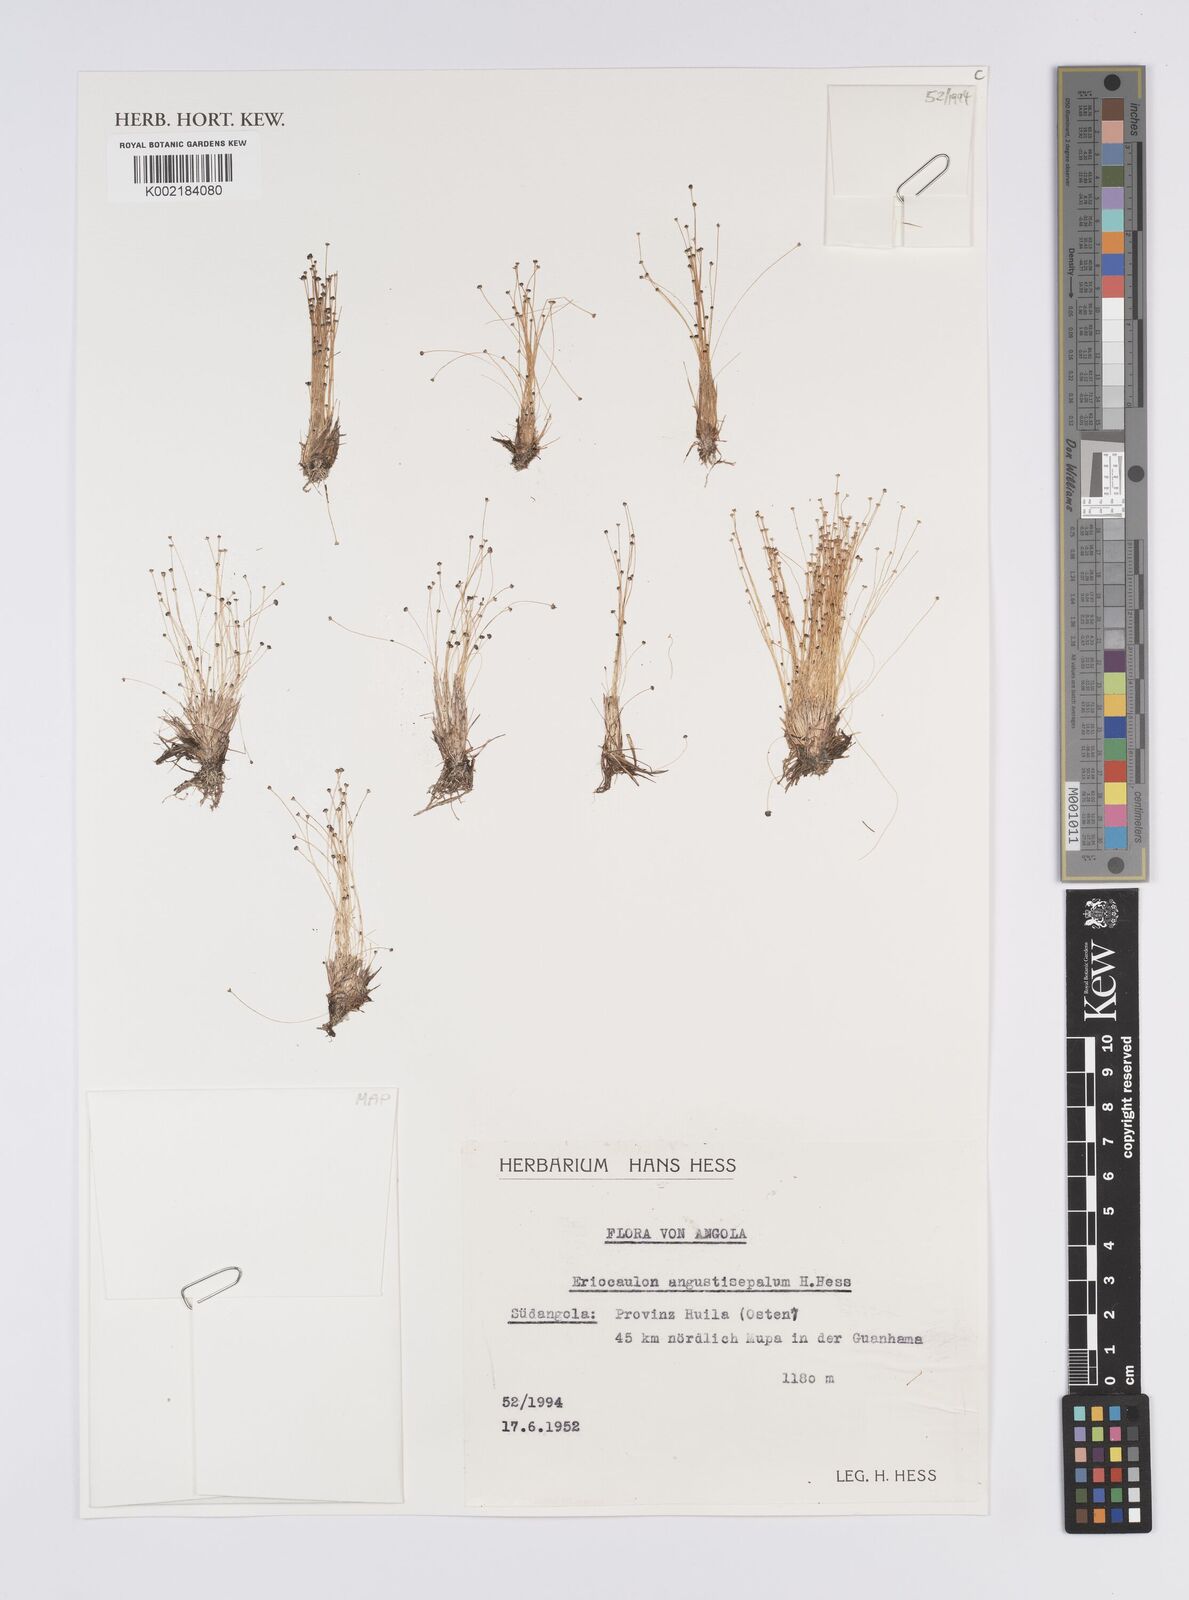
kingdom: Plantae
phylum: Tracheophyta
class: Liliopsida
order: Poales
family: Eriocaulaceae
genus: Eriocaulon
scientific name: Eriocaulon mutatum
